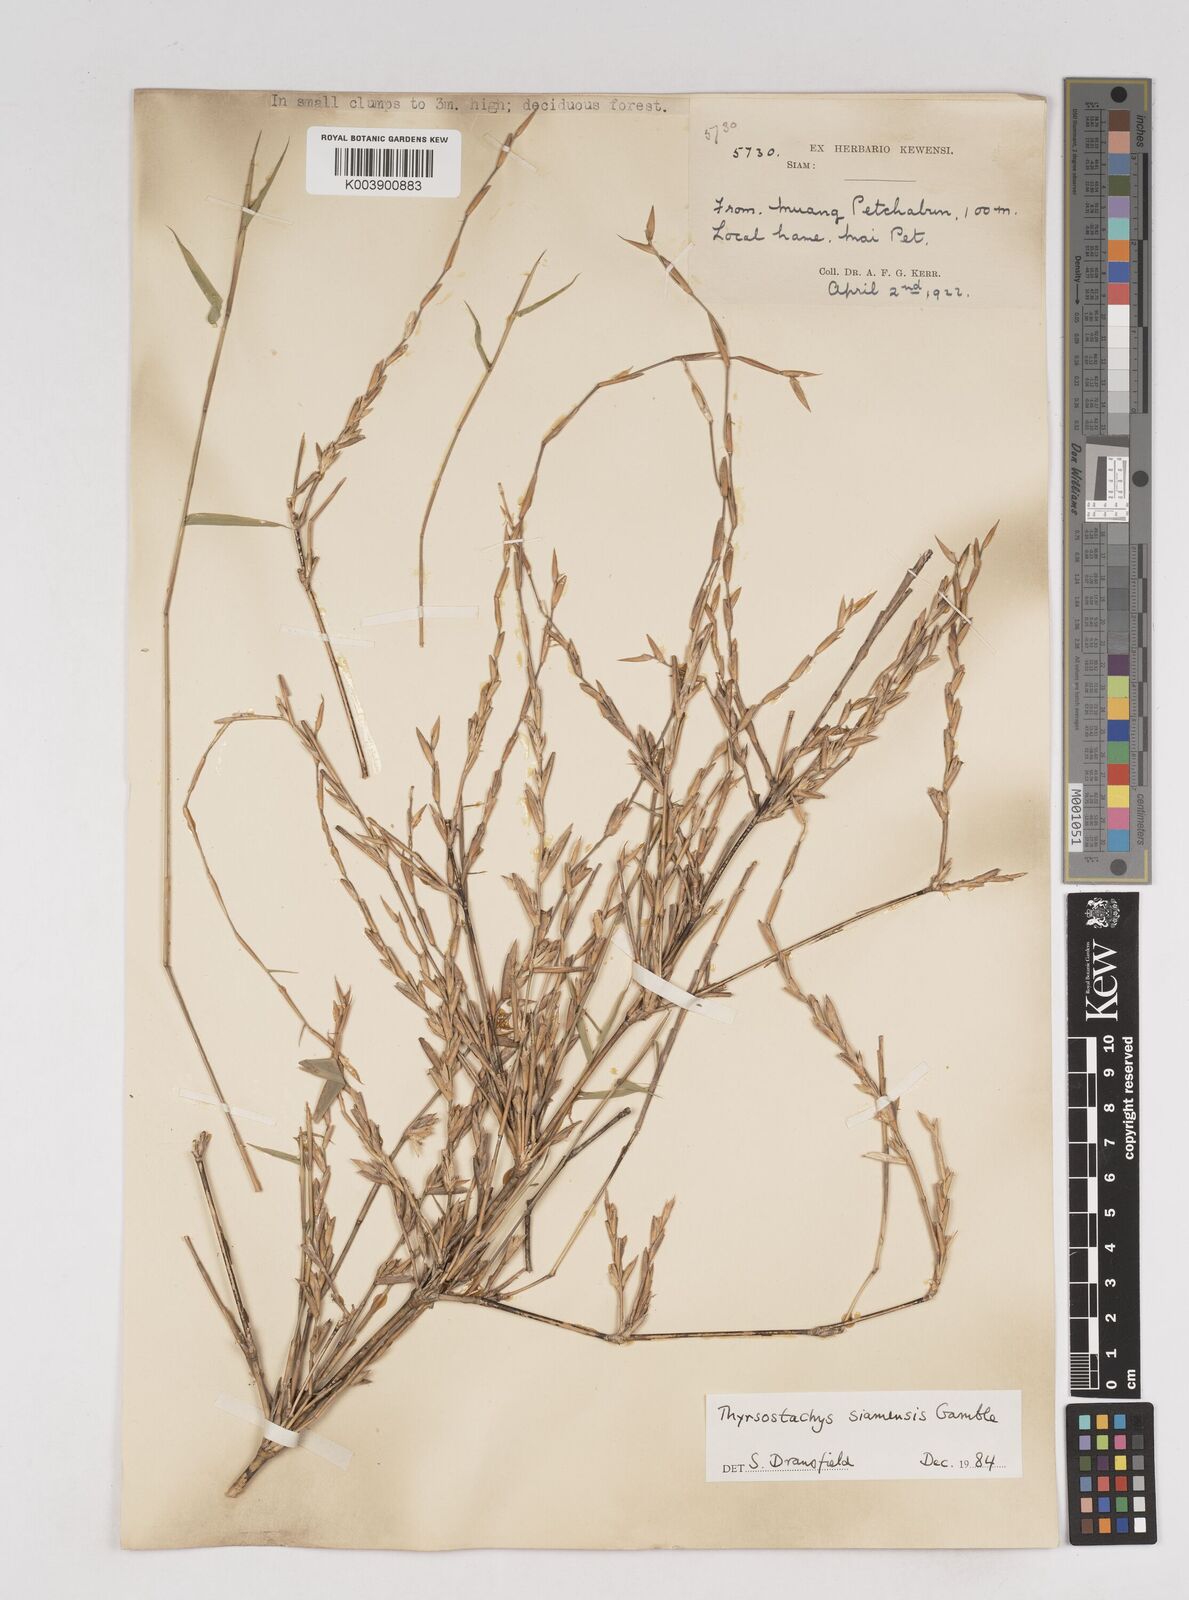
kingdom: Plantae
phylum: Tracheophyta
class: Liliopsida
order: Poales
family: Poaceae
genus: Thyrsostachys
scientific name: Thyrsostachys
